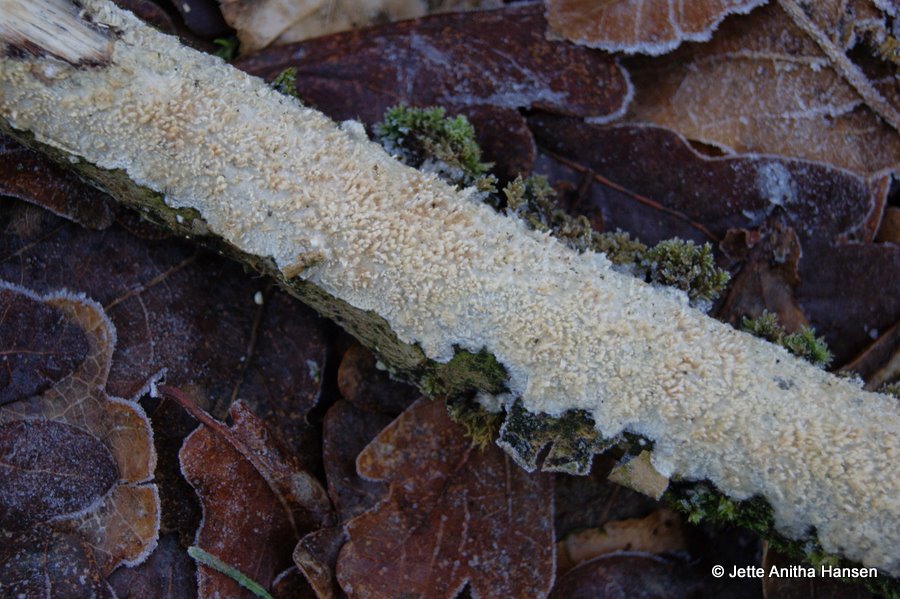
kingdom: Fungi
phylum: Basidiomycota
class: Agaricomycetes
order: Hymenochaetales
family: Schizoporaceae
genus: Xylodon
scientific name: Xylodon radula
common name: grovtandet kalkskind
